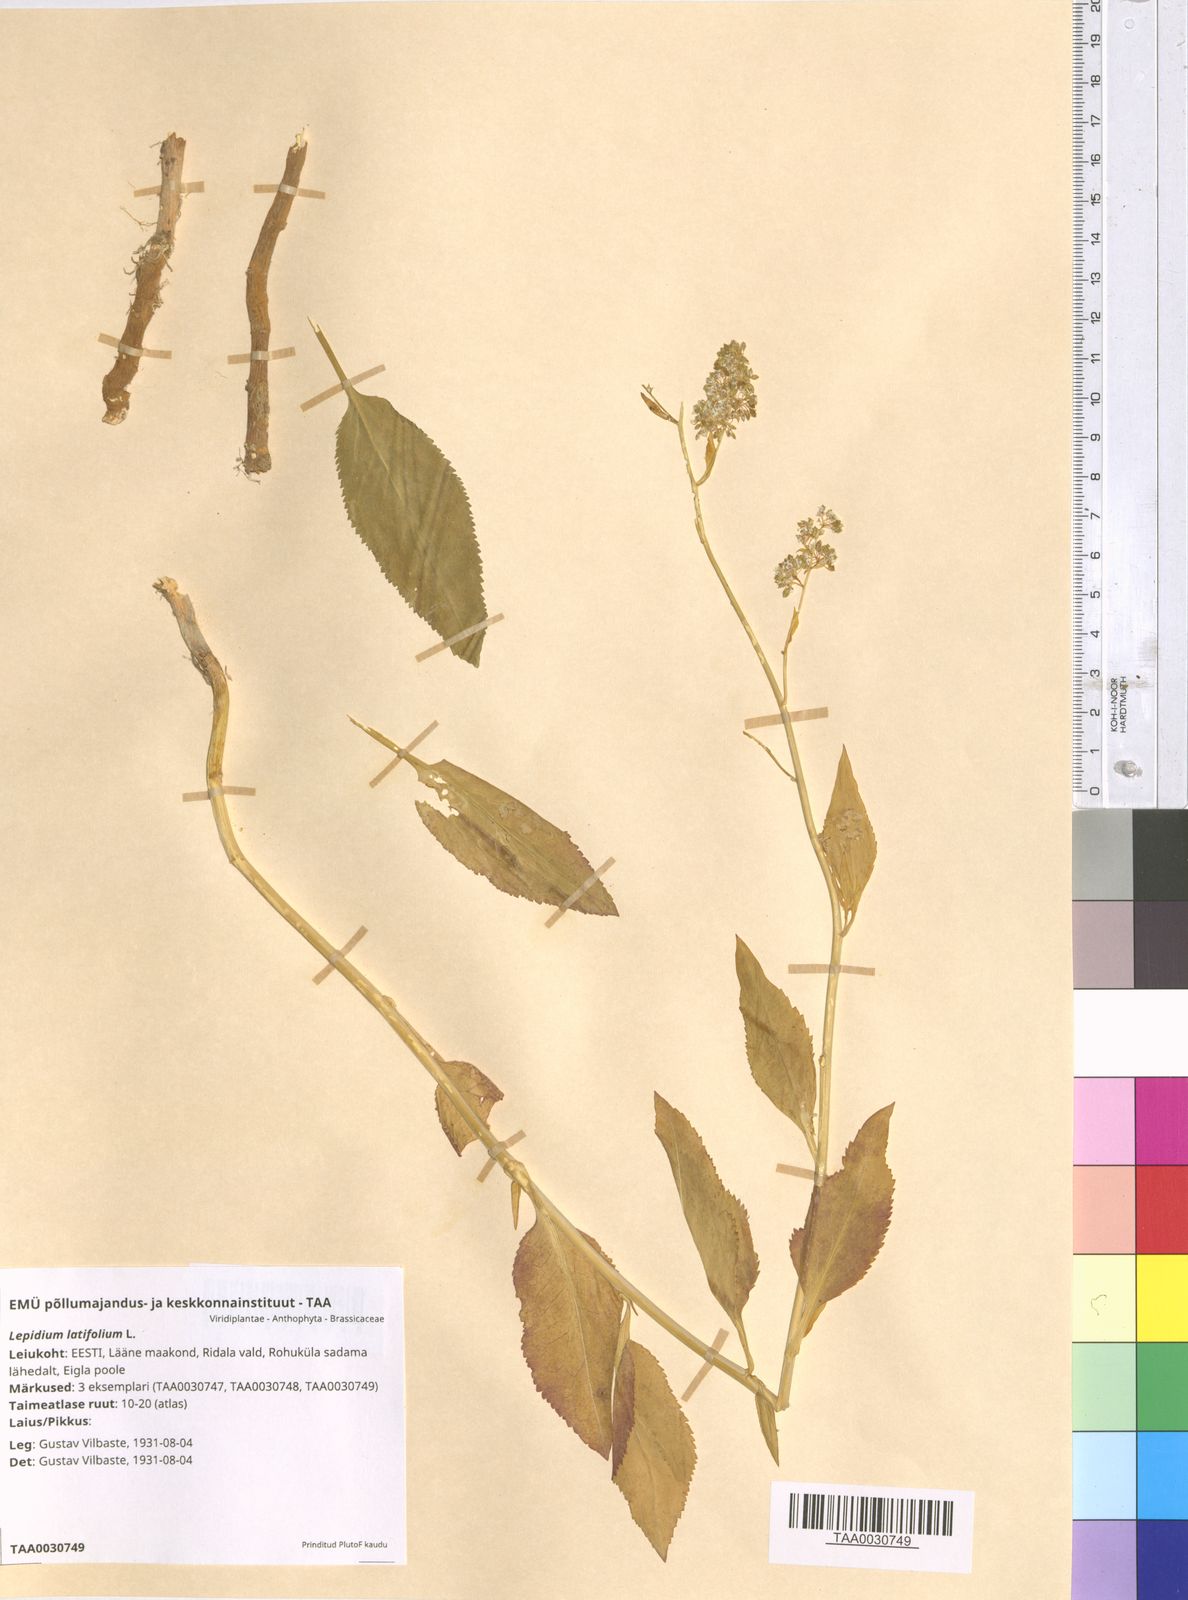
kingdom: Plantae
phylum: Tracheophyta
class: Magnoliopsida
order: Brassicales
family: Brassicaceae
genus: Lepidium
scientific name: Lepidium latifolium
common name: Dittander
